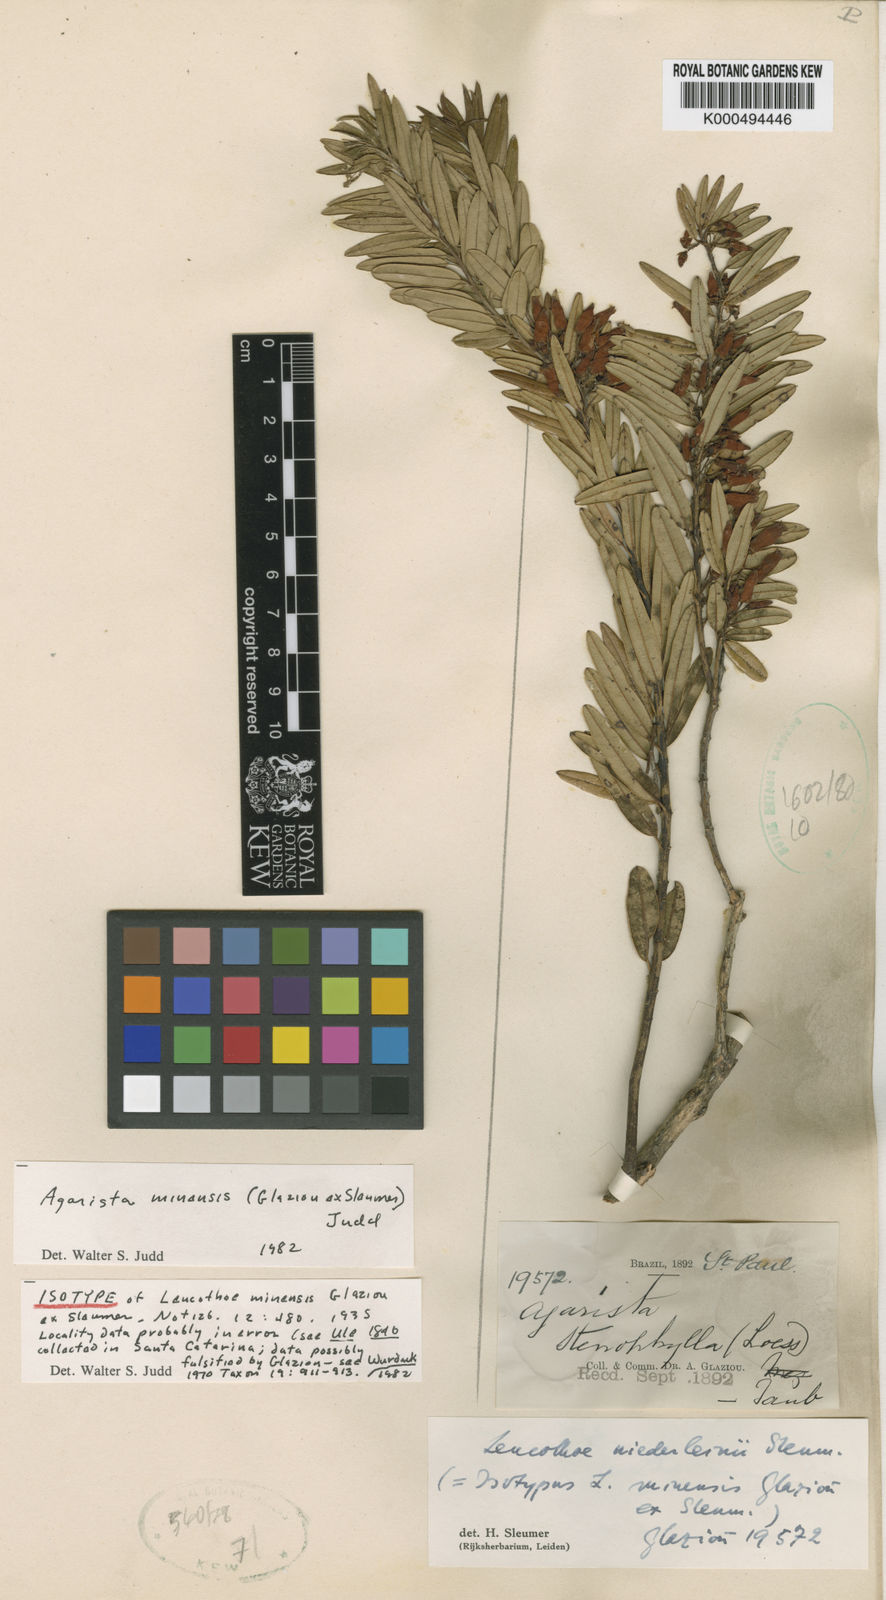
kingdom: Plantae
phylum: Tracheophyta
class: Magnoliopsida
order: Ericales
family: Ericaceae
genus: Agarista
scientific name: Agarista minensis
